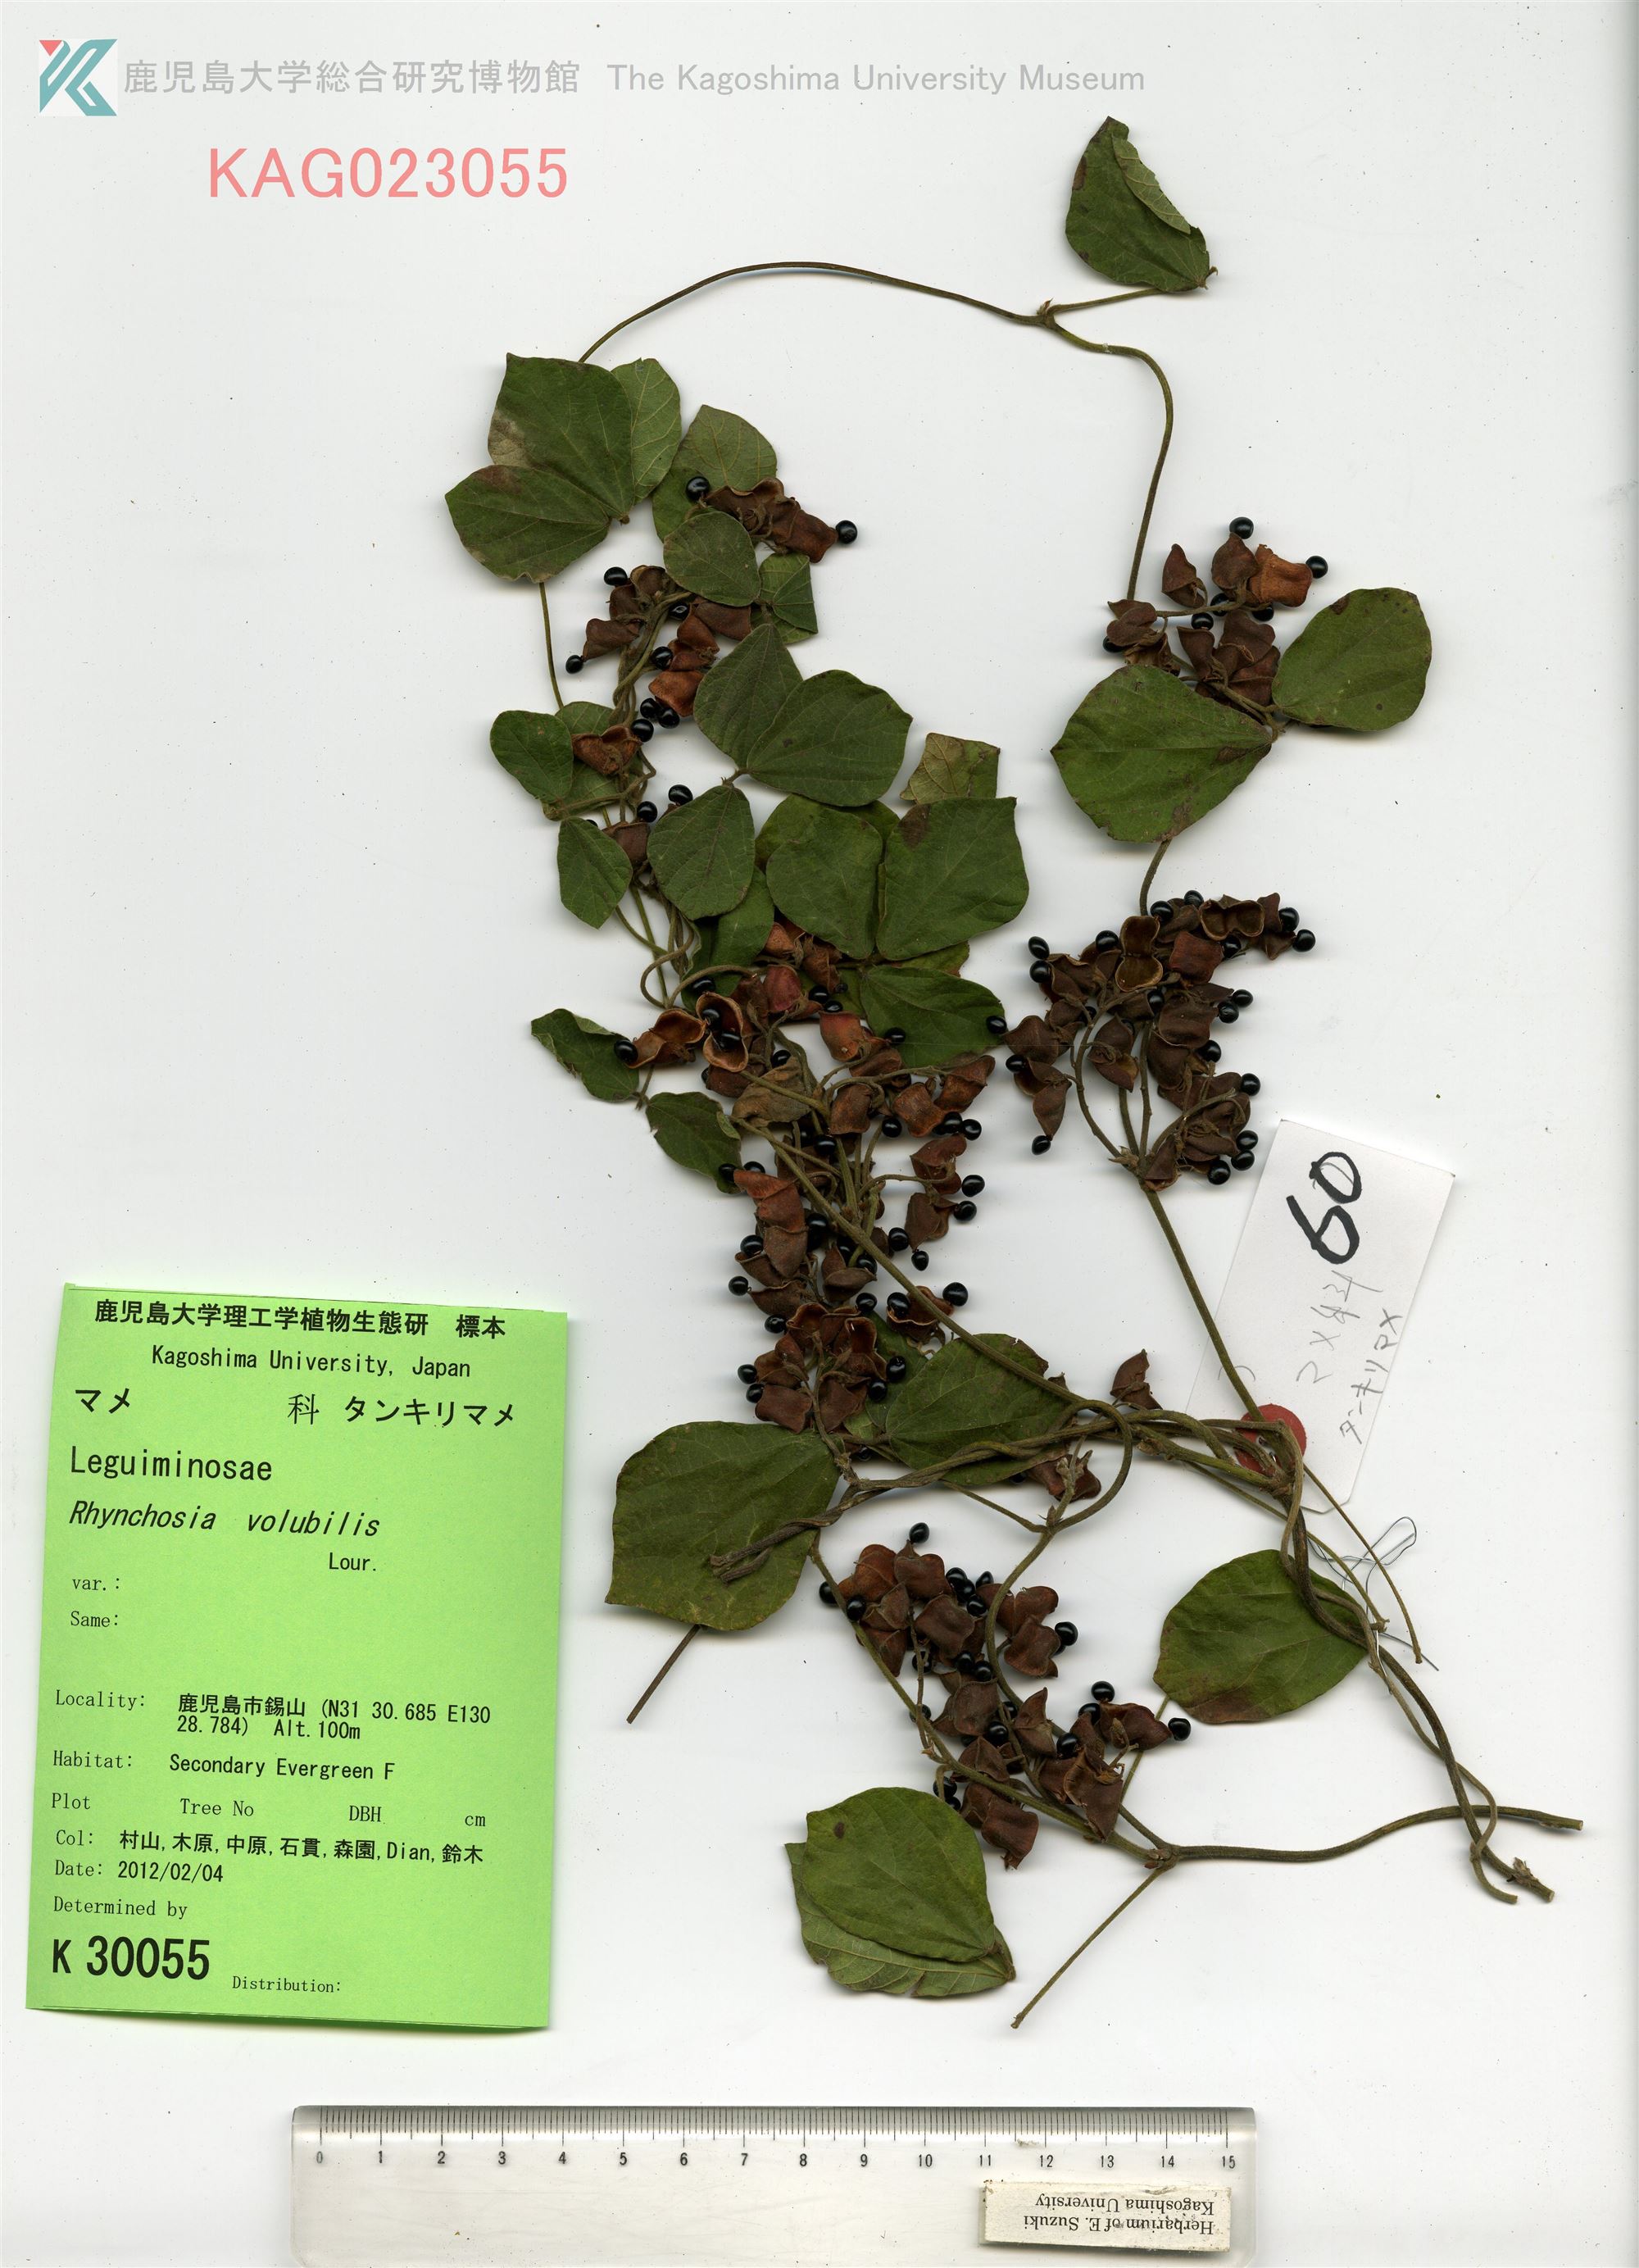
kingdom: Plantae
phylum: Tracheophyta
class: Magnoliopsida
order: Fabales
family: Fabaceae
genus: Rhynchosia
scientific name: Rhynchosia volubilis
